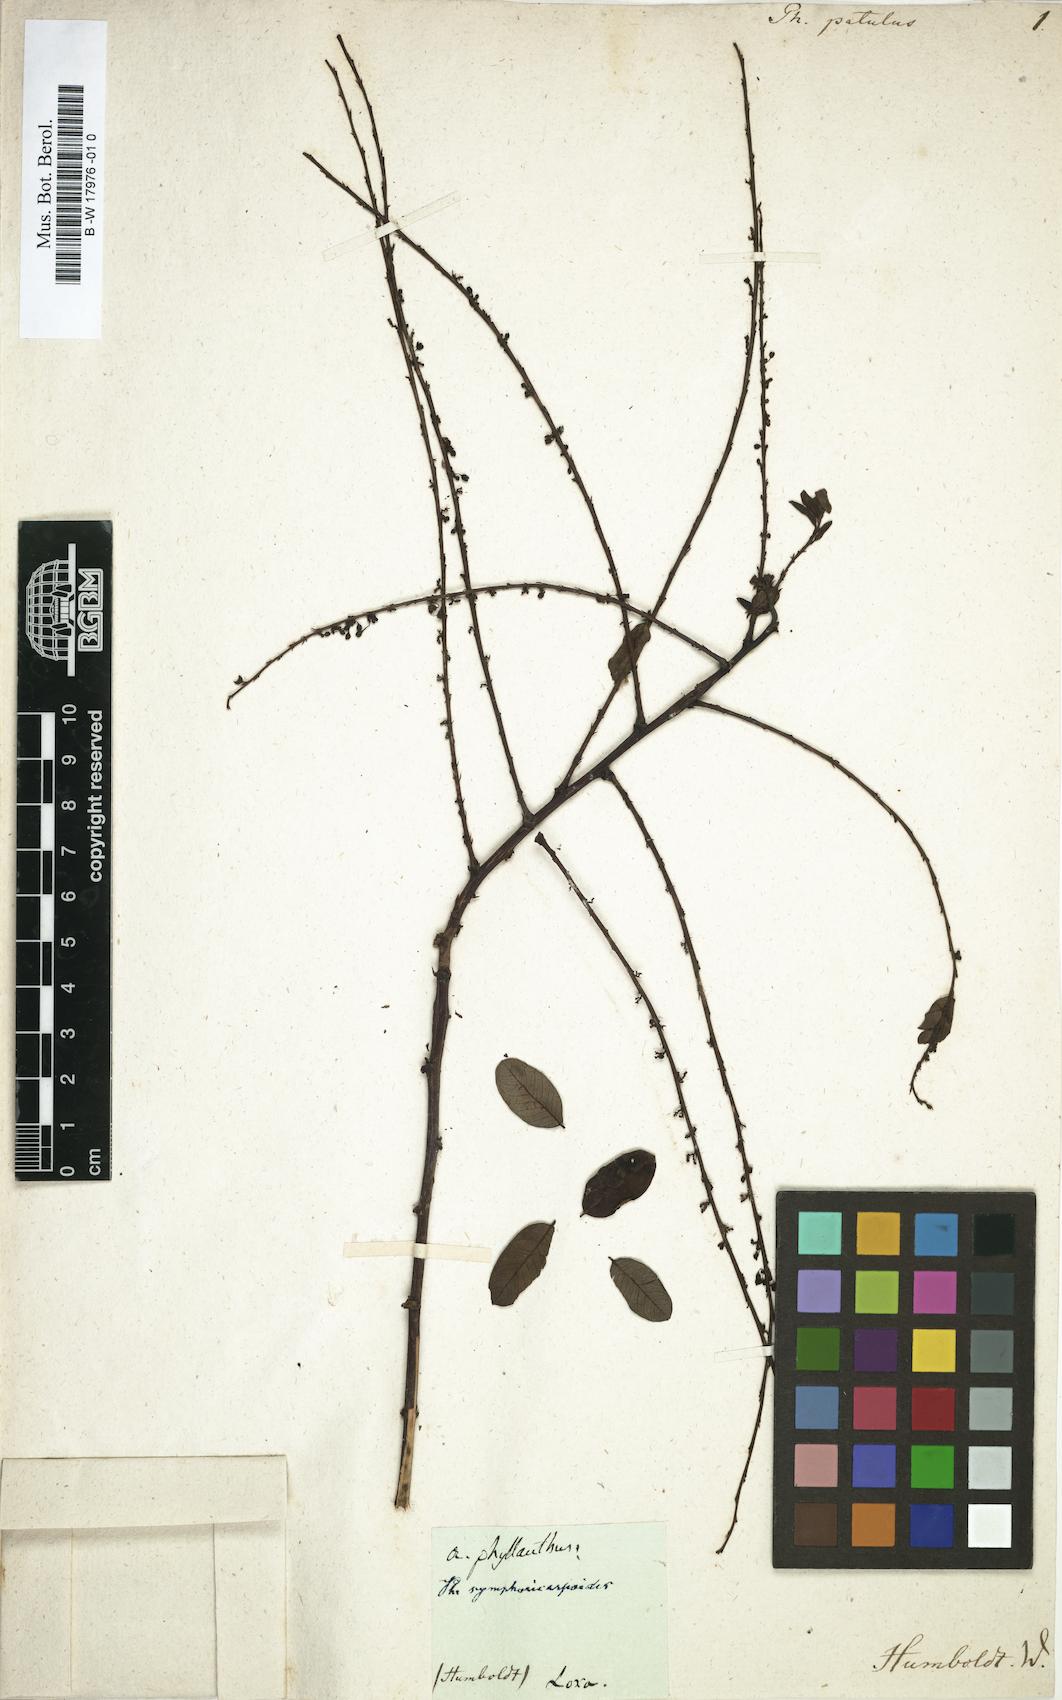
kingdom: Plantae
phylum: Tracheophyta
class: Magnoliopsida
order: Malpighiales
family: Phyllanthaceae
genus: Phyllanthus
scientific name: Phyllanthus
